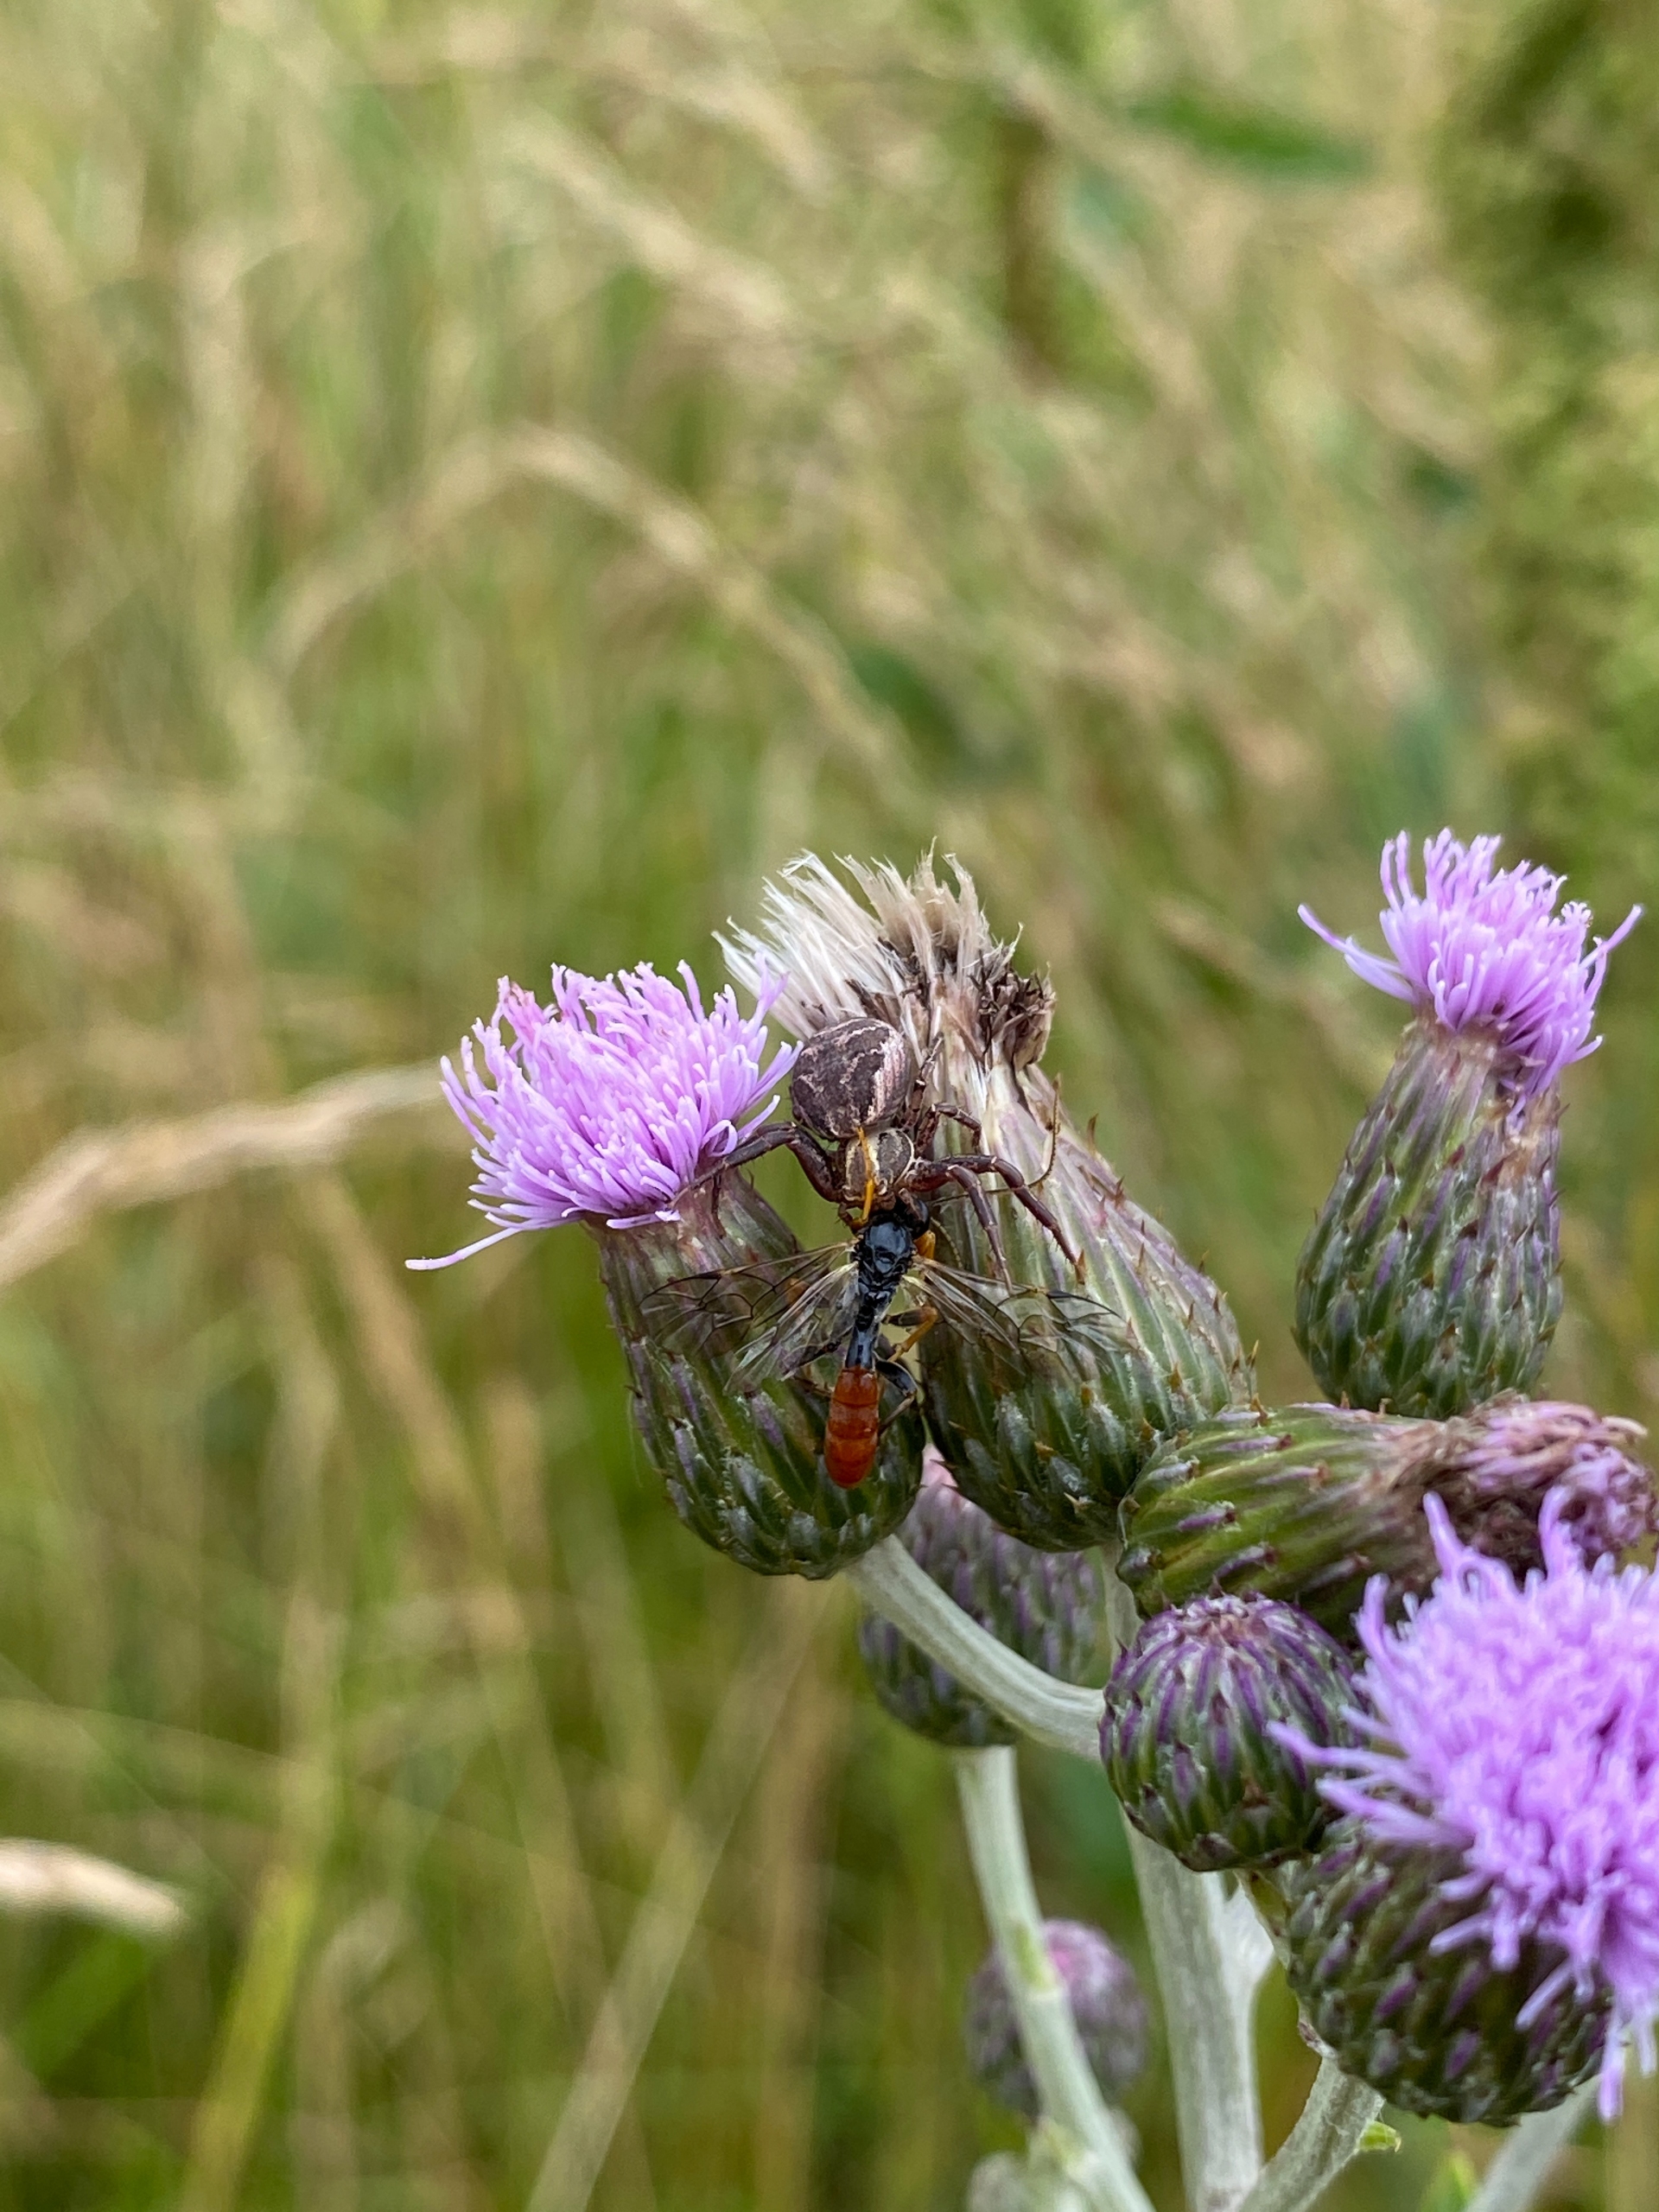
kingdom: Animalia
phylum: Arthropoda
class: Arachnida
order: Araneae
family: Thomisidae
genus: Xysticus
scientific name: Xysticus
